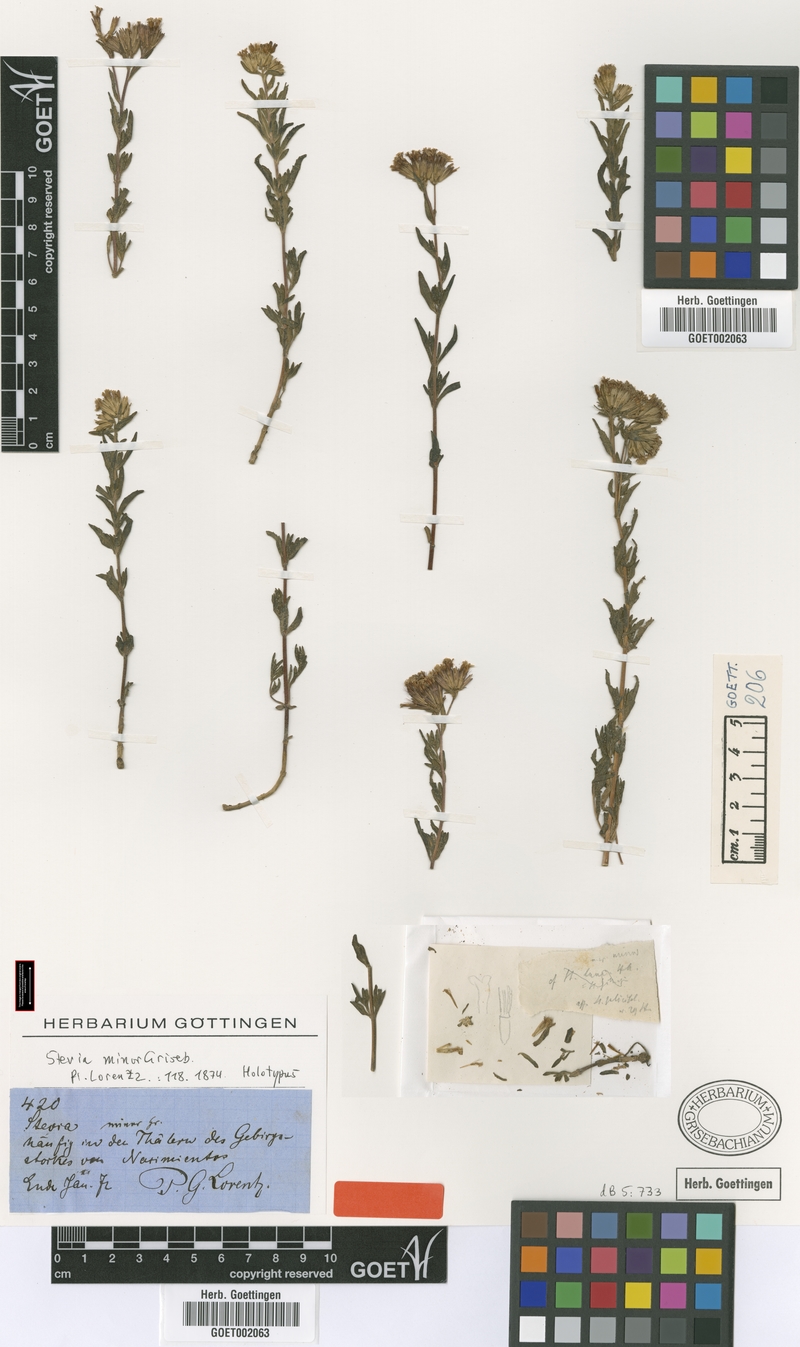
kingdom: Plantae
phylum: Tracheophyta
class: Magnoliopsida
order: Asterales
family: Asteraceae
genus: Stevia
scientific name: Stevia minor
